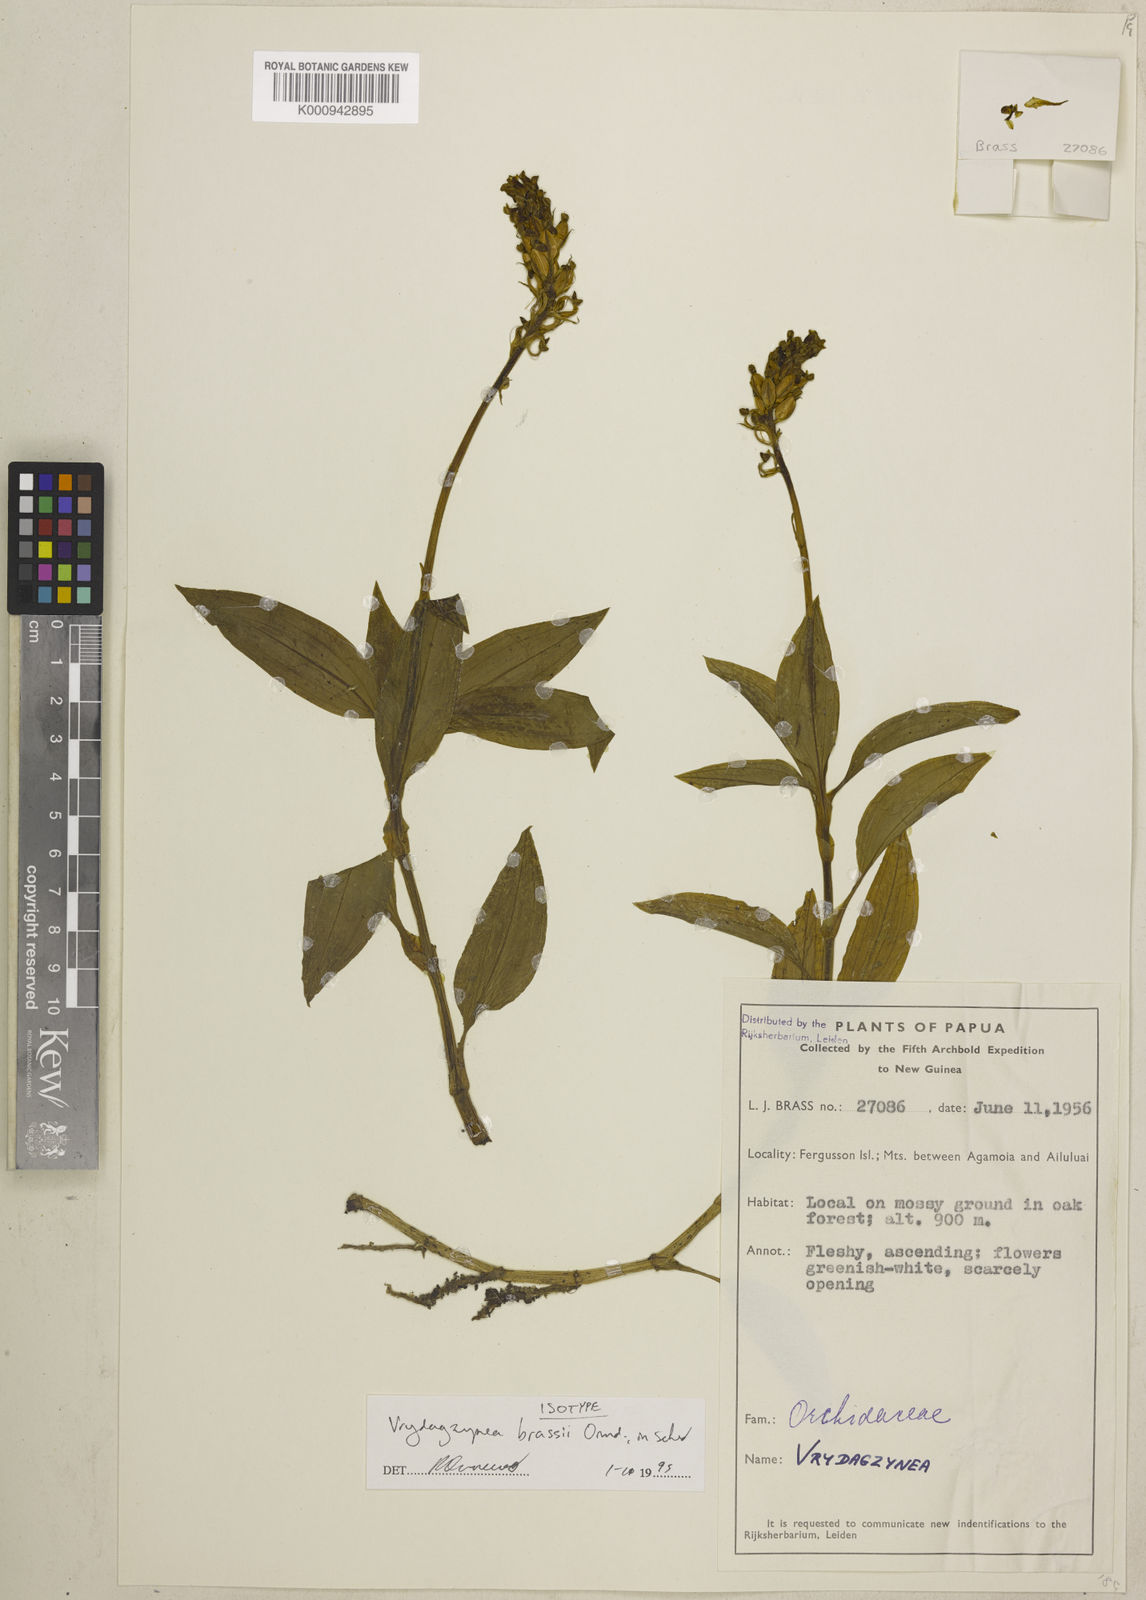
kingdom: Plantae
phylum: Tracheophyta
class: Liliopsida
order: Asparagales
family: Orchidaceae
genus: Vrydagzynea
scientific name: Vrydagzynea brassii
